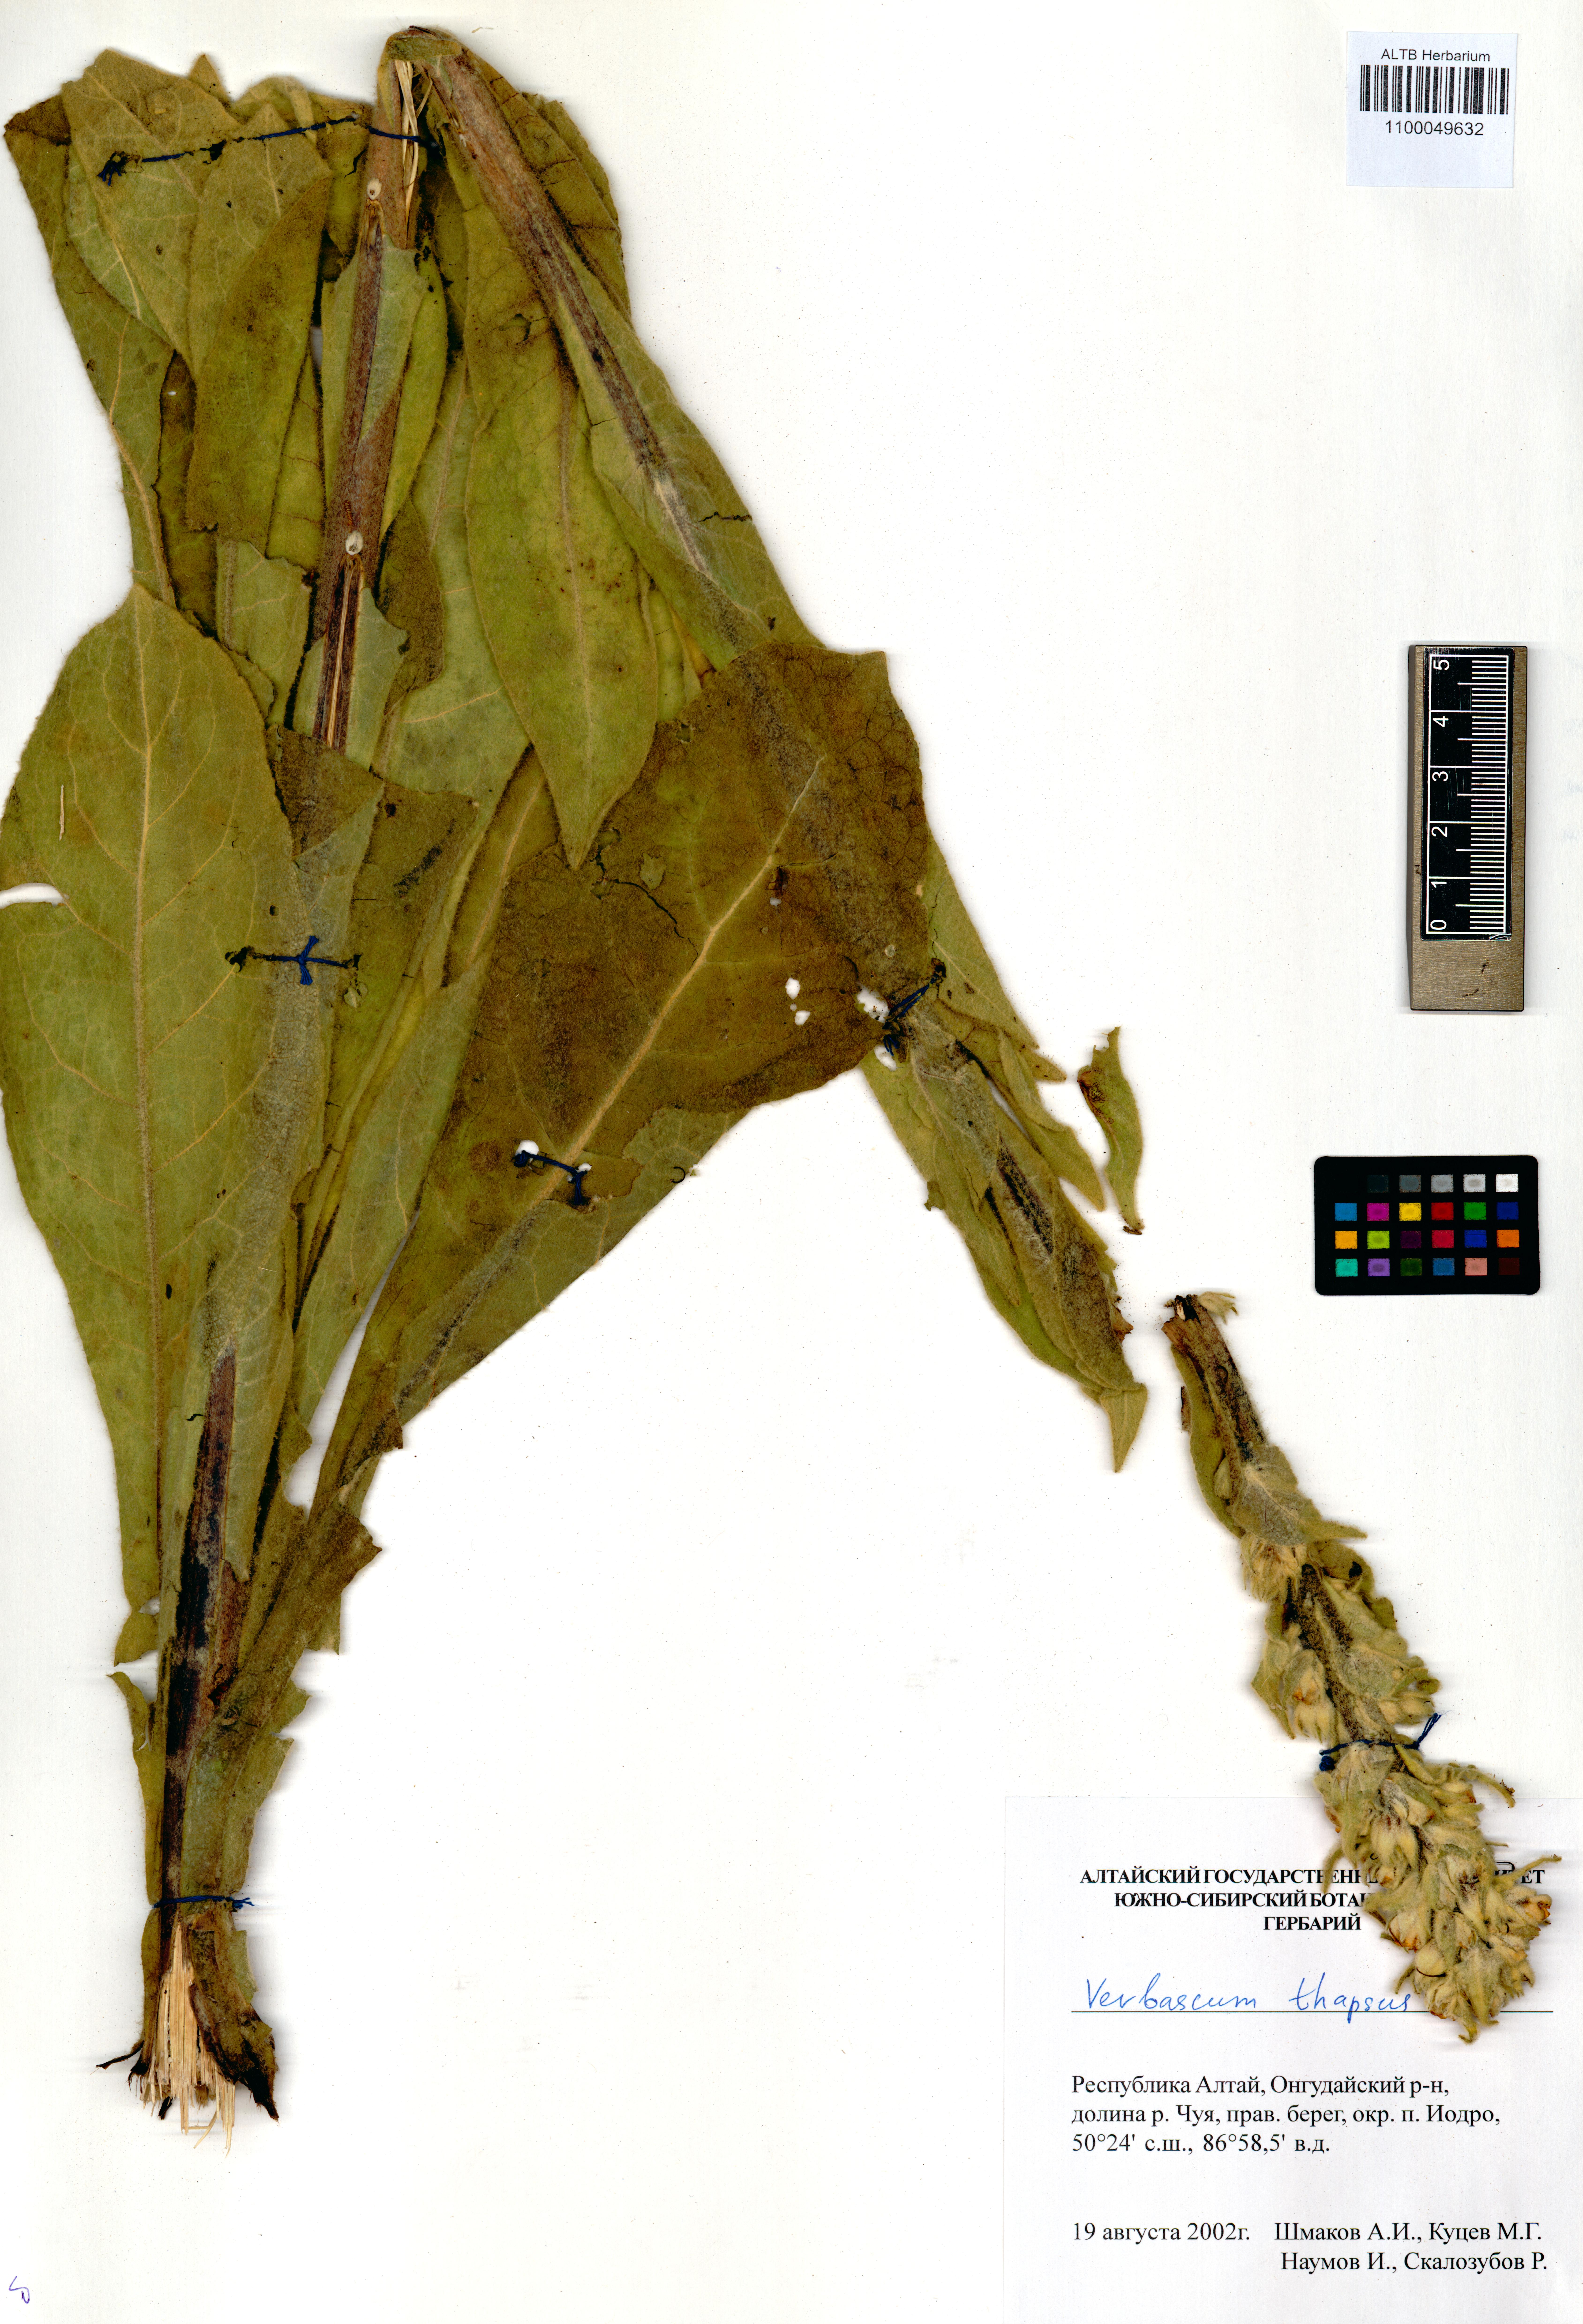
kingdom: Plantae
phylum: Tracheophyta
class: Magnoliopsida
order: Lamiales
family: Scrophulariaceae
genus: Verbascum
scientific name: Verbascum thapsus
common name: Common mullein
